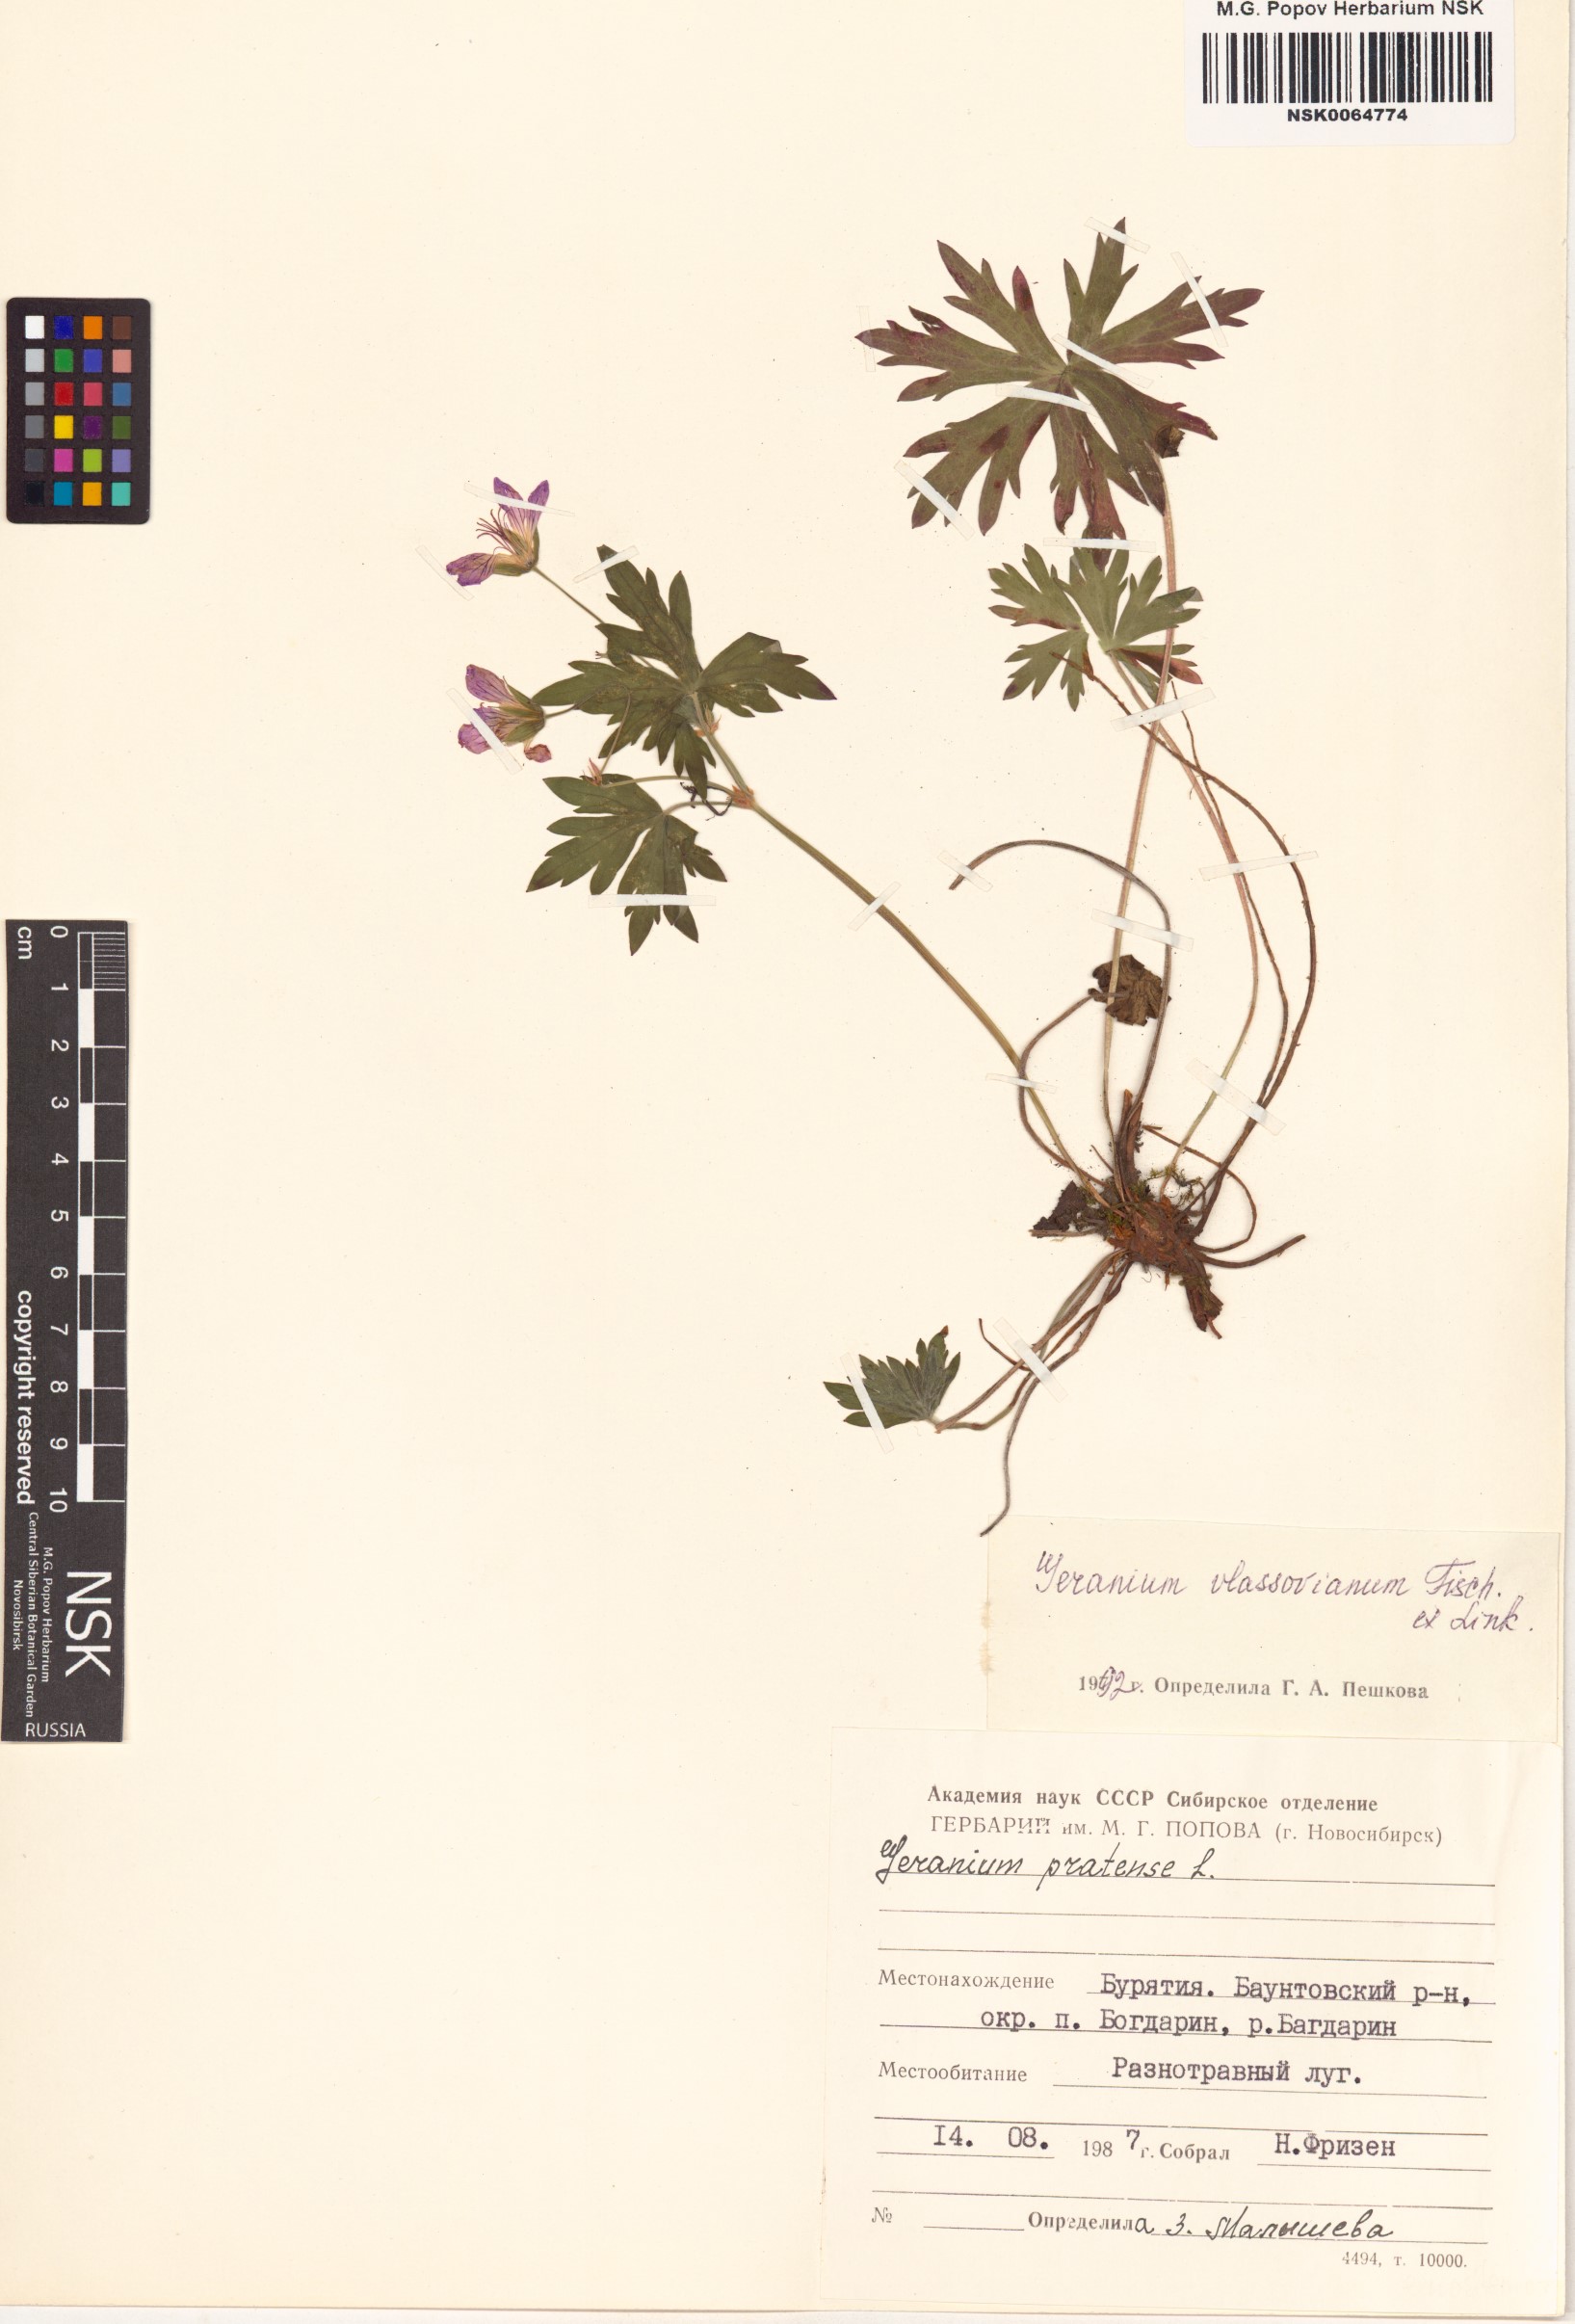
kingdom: Plantae
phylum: Tracheophyta
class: Magnoliopsida
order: Geraniales
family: Geraniaceae
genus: Geranium
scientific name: Geranium wlassovianum
